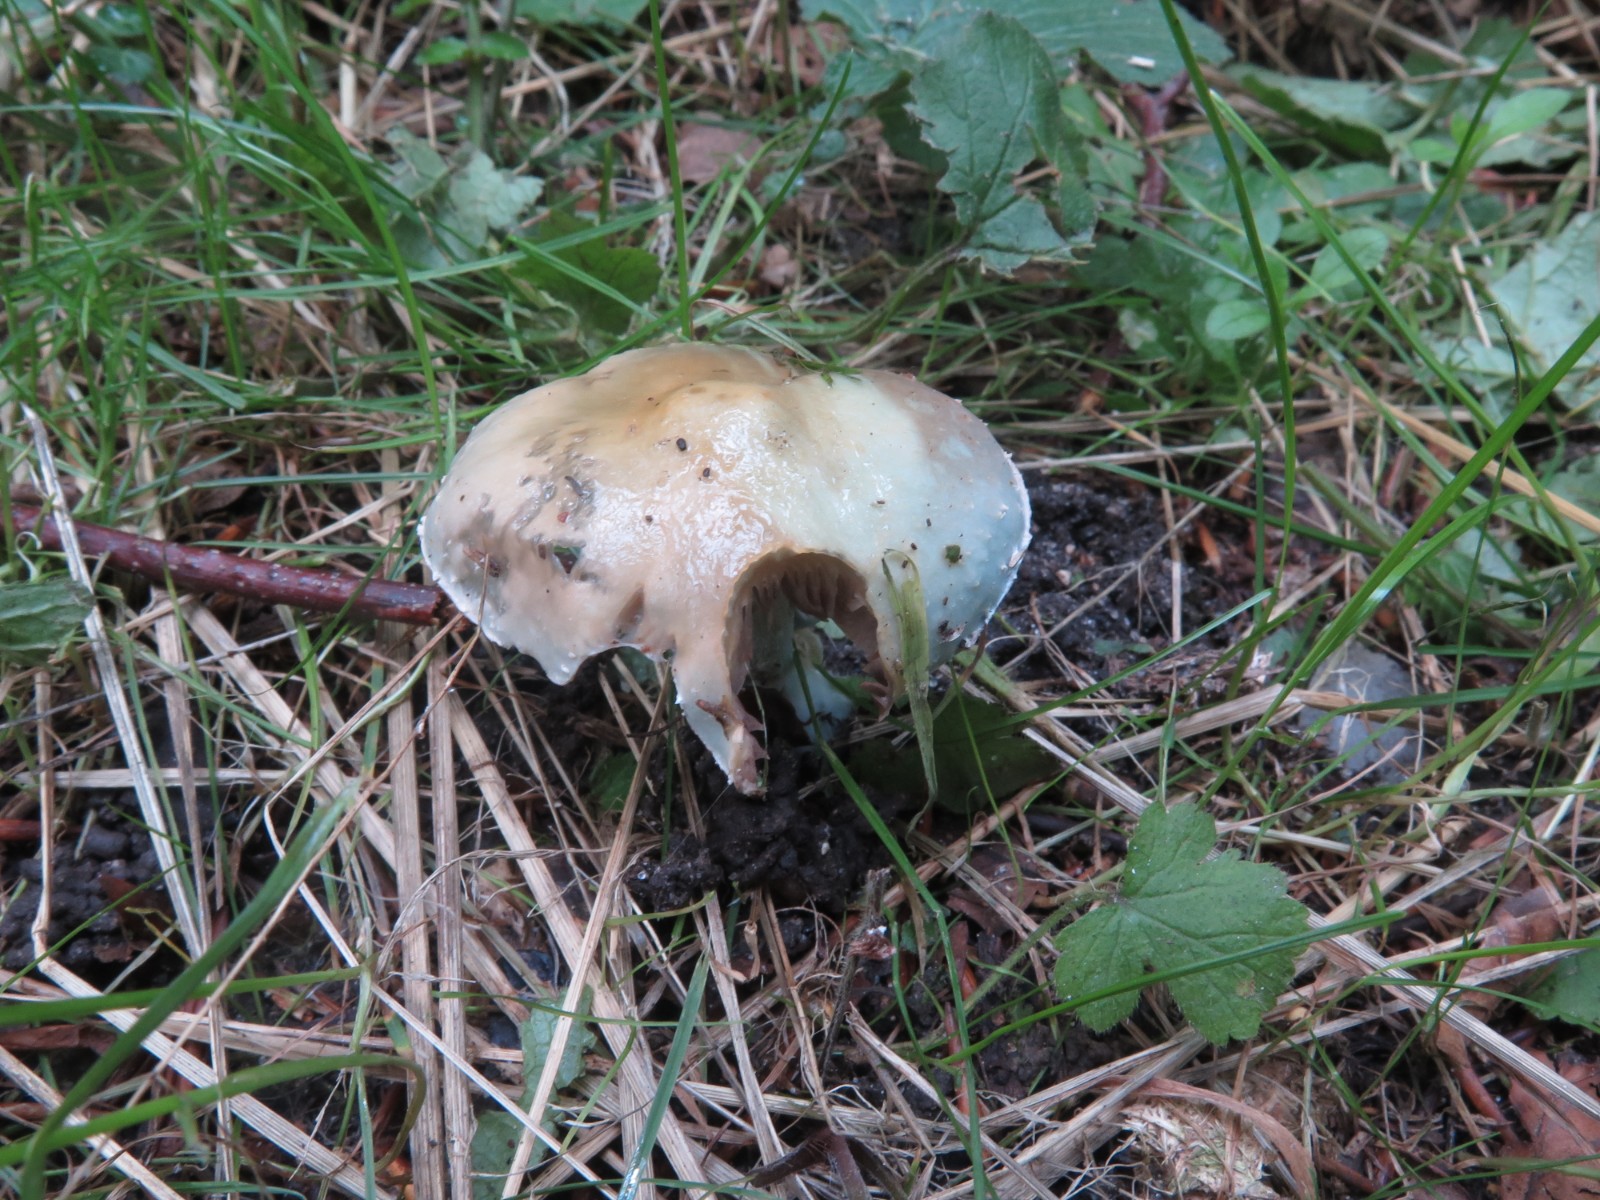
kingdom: Fungi
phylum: Basidiomycota
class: Agaricomycetes
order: Agaricales
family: Strophariaceae
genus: Stropharia
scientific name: Stropharia aeruginosa
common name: spanskgrøn bredblad
